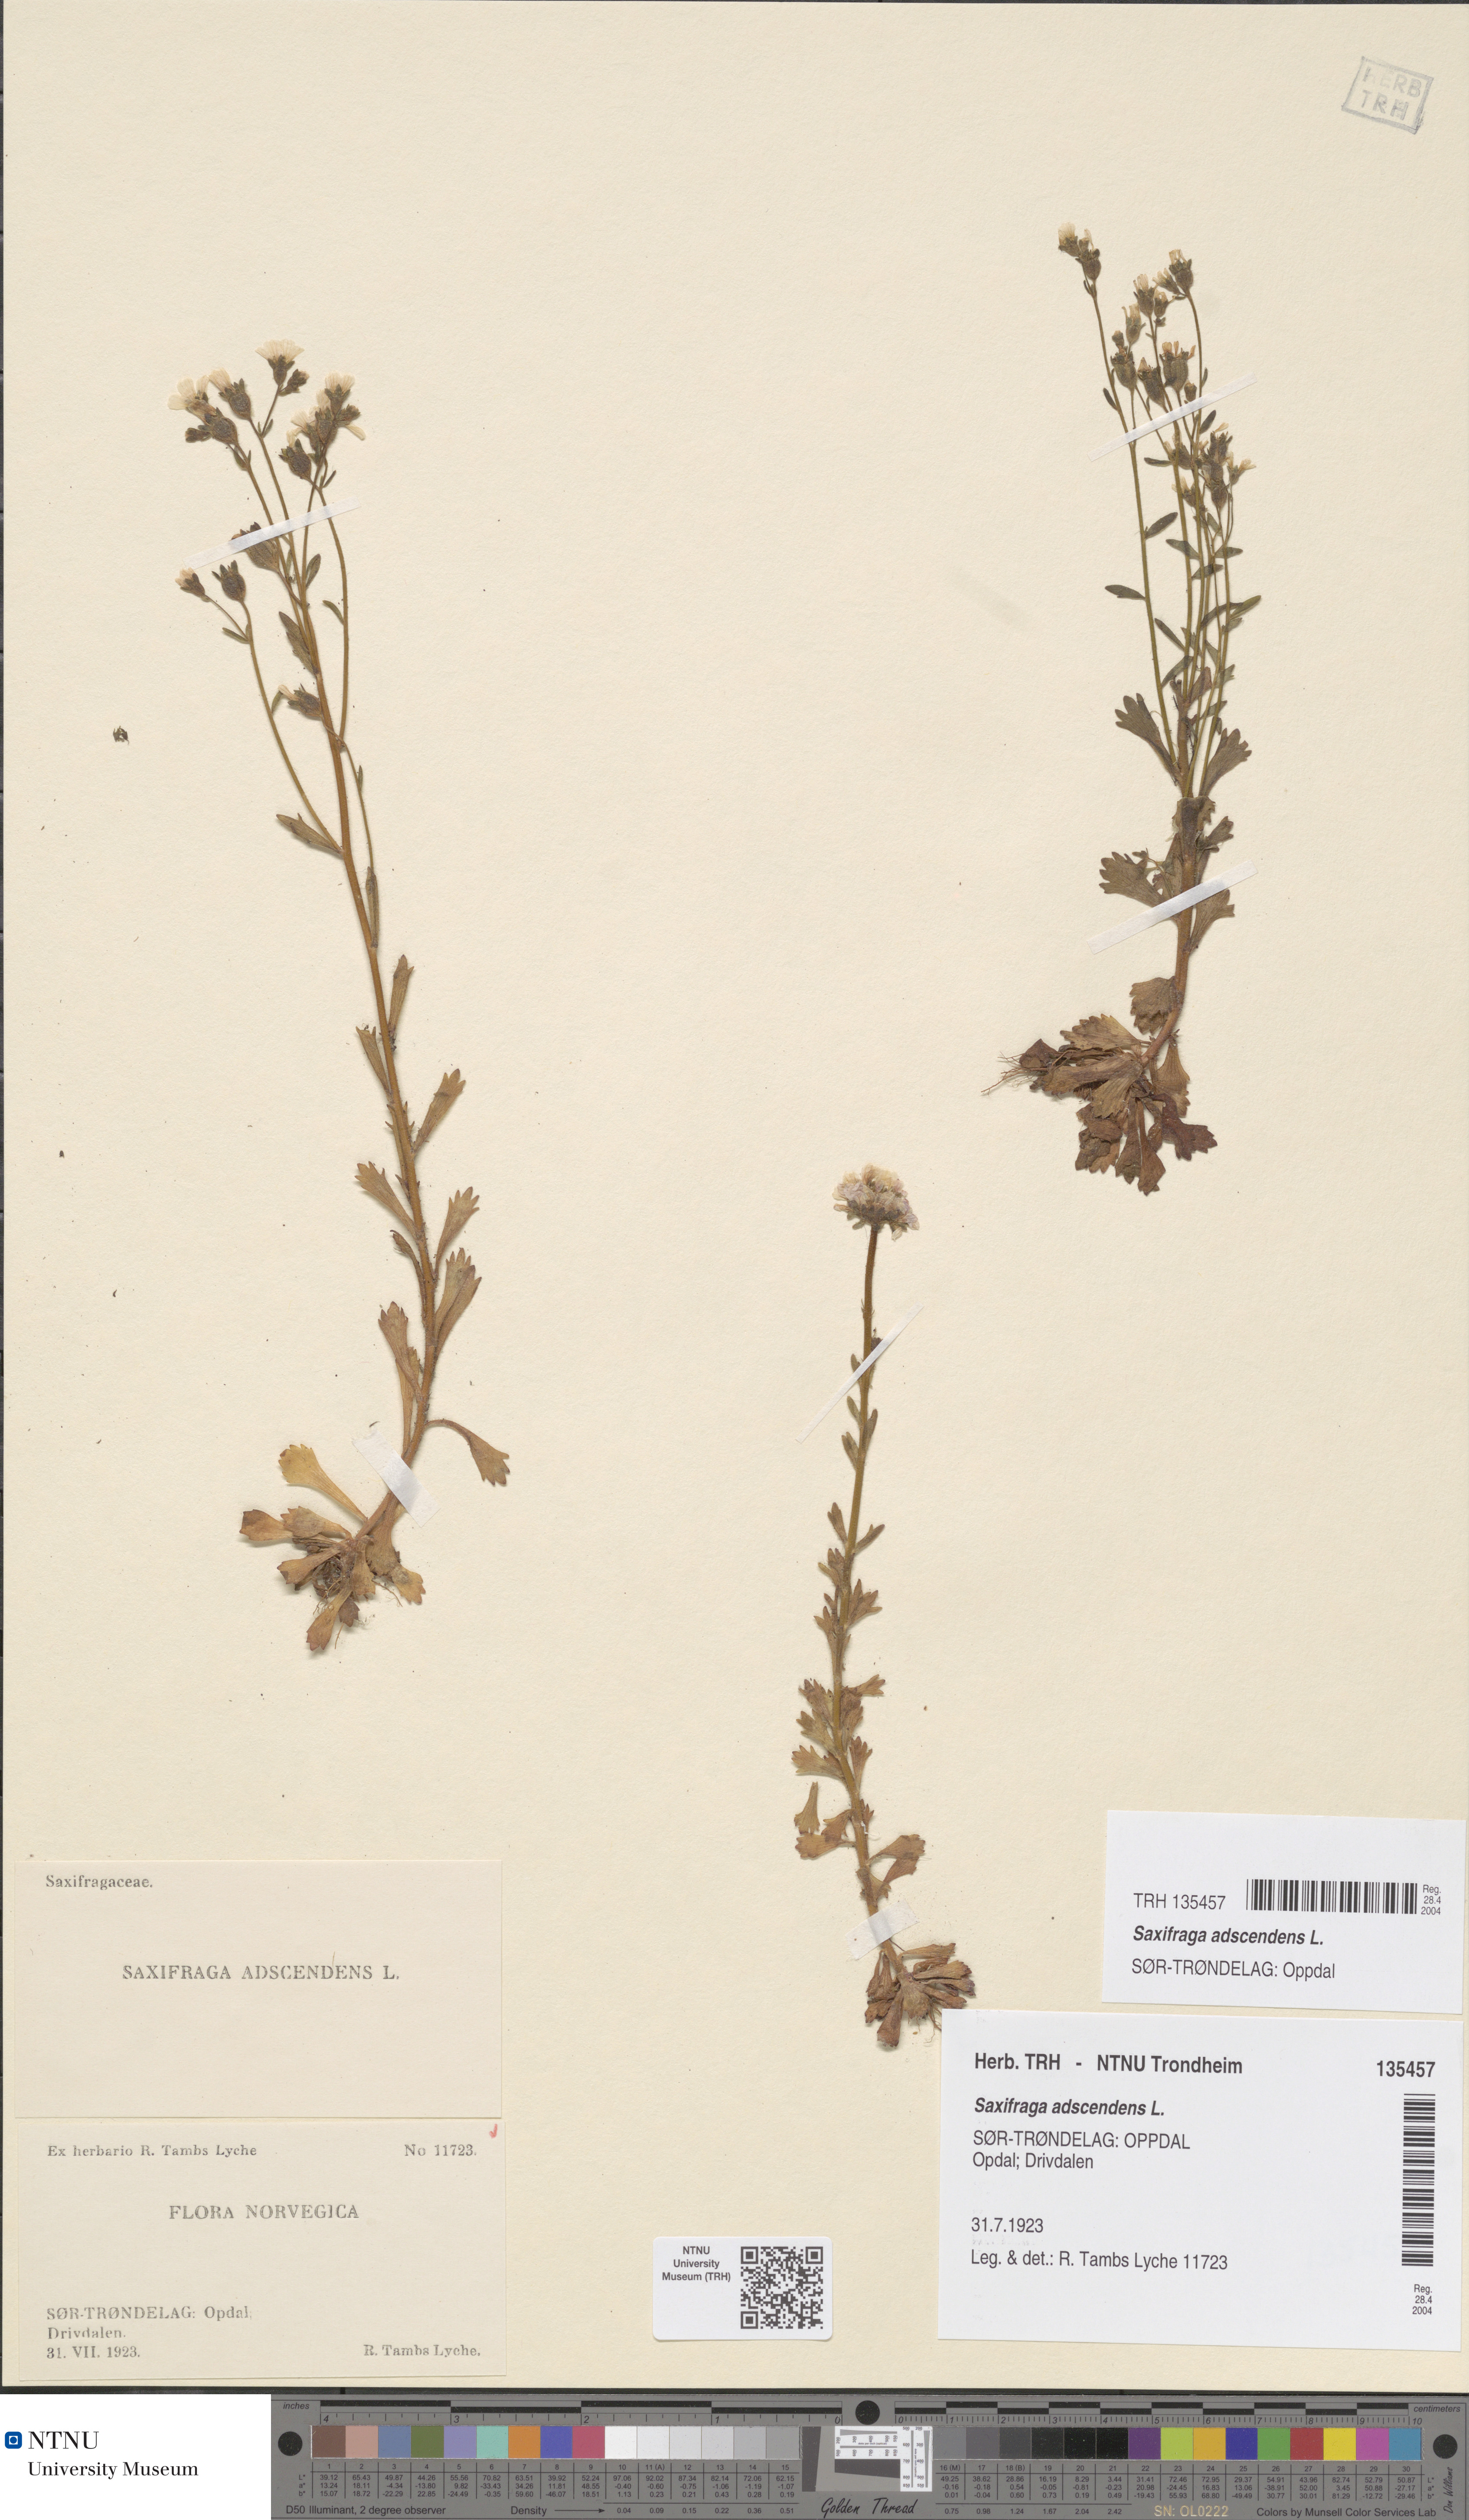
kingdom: Plantae
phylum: Tracheophyta
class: Magnoliopsida
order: Saxifragales
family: Saxifragaceae
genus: Saxifraga
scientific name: Saxifraga adscendens
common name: Ascending saxifrage
